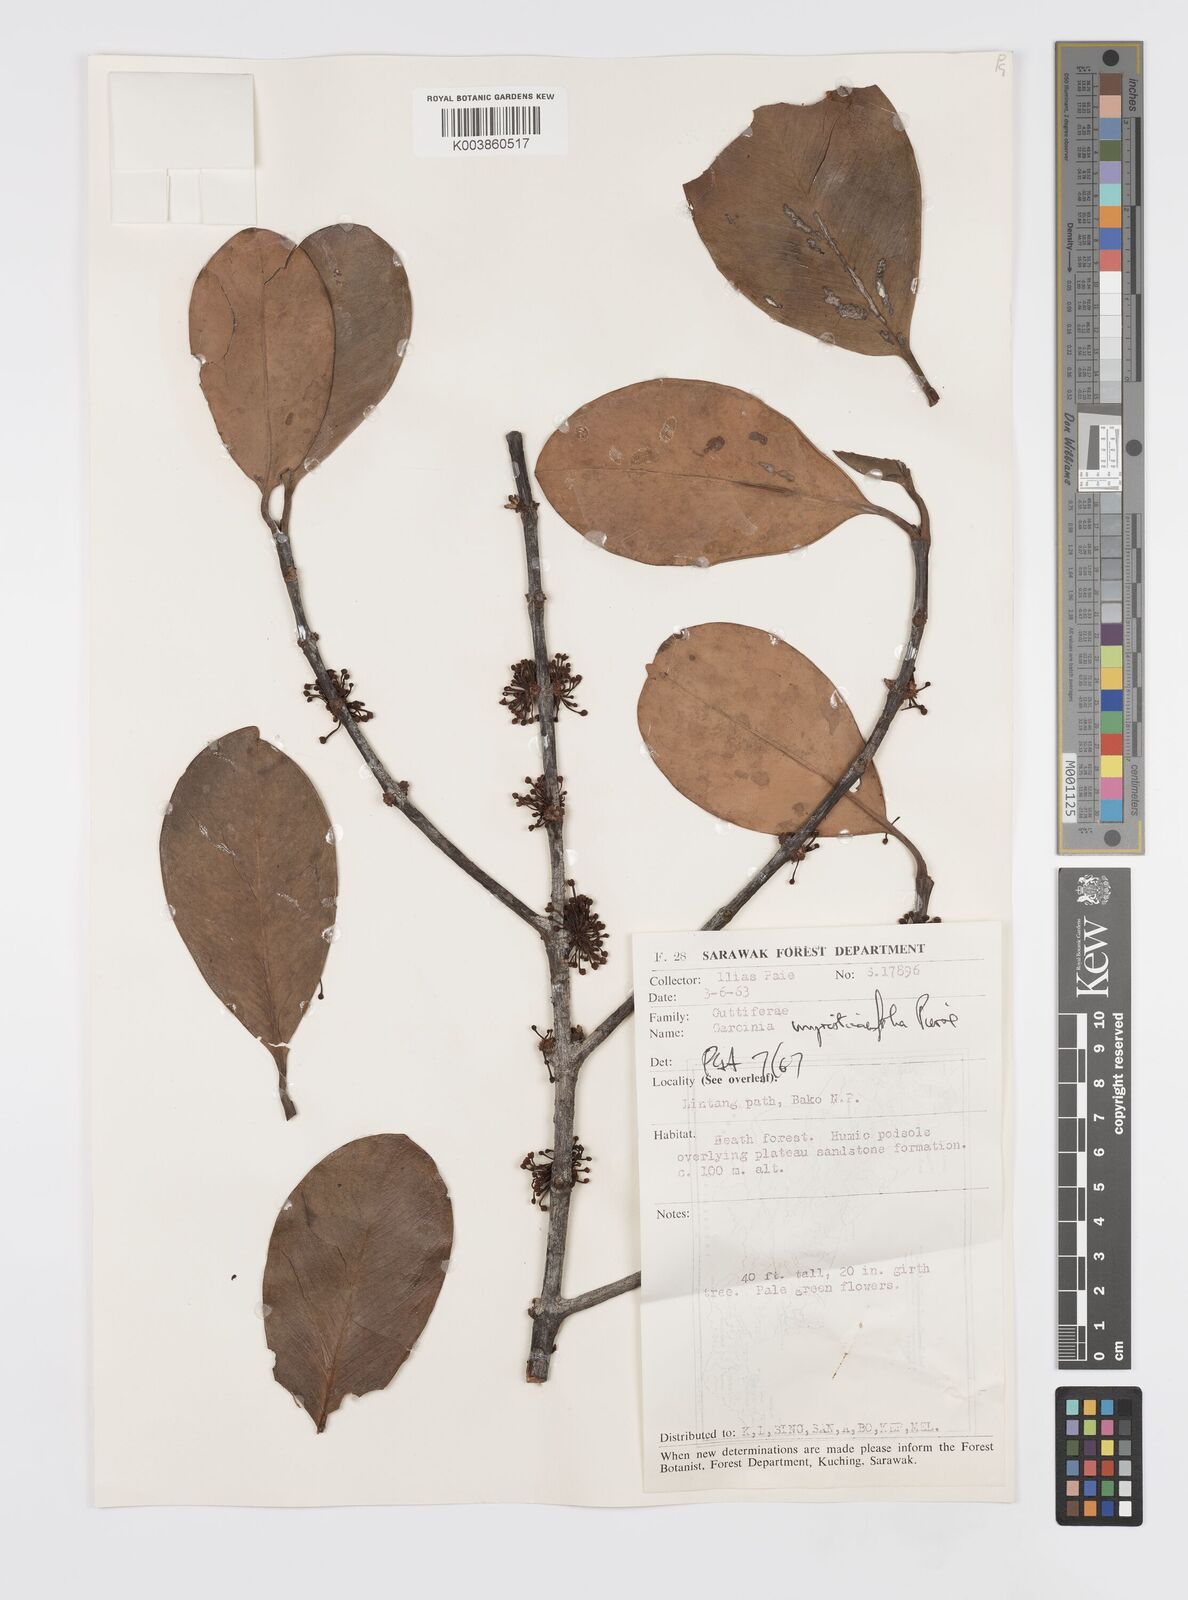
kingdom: Plantae
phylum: Tracheophyta
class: Magnoliopsida
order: Malpighiales
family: Clusiaceae
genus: Garcinia
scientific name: Garcinia myristicifolia
